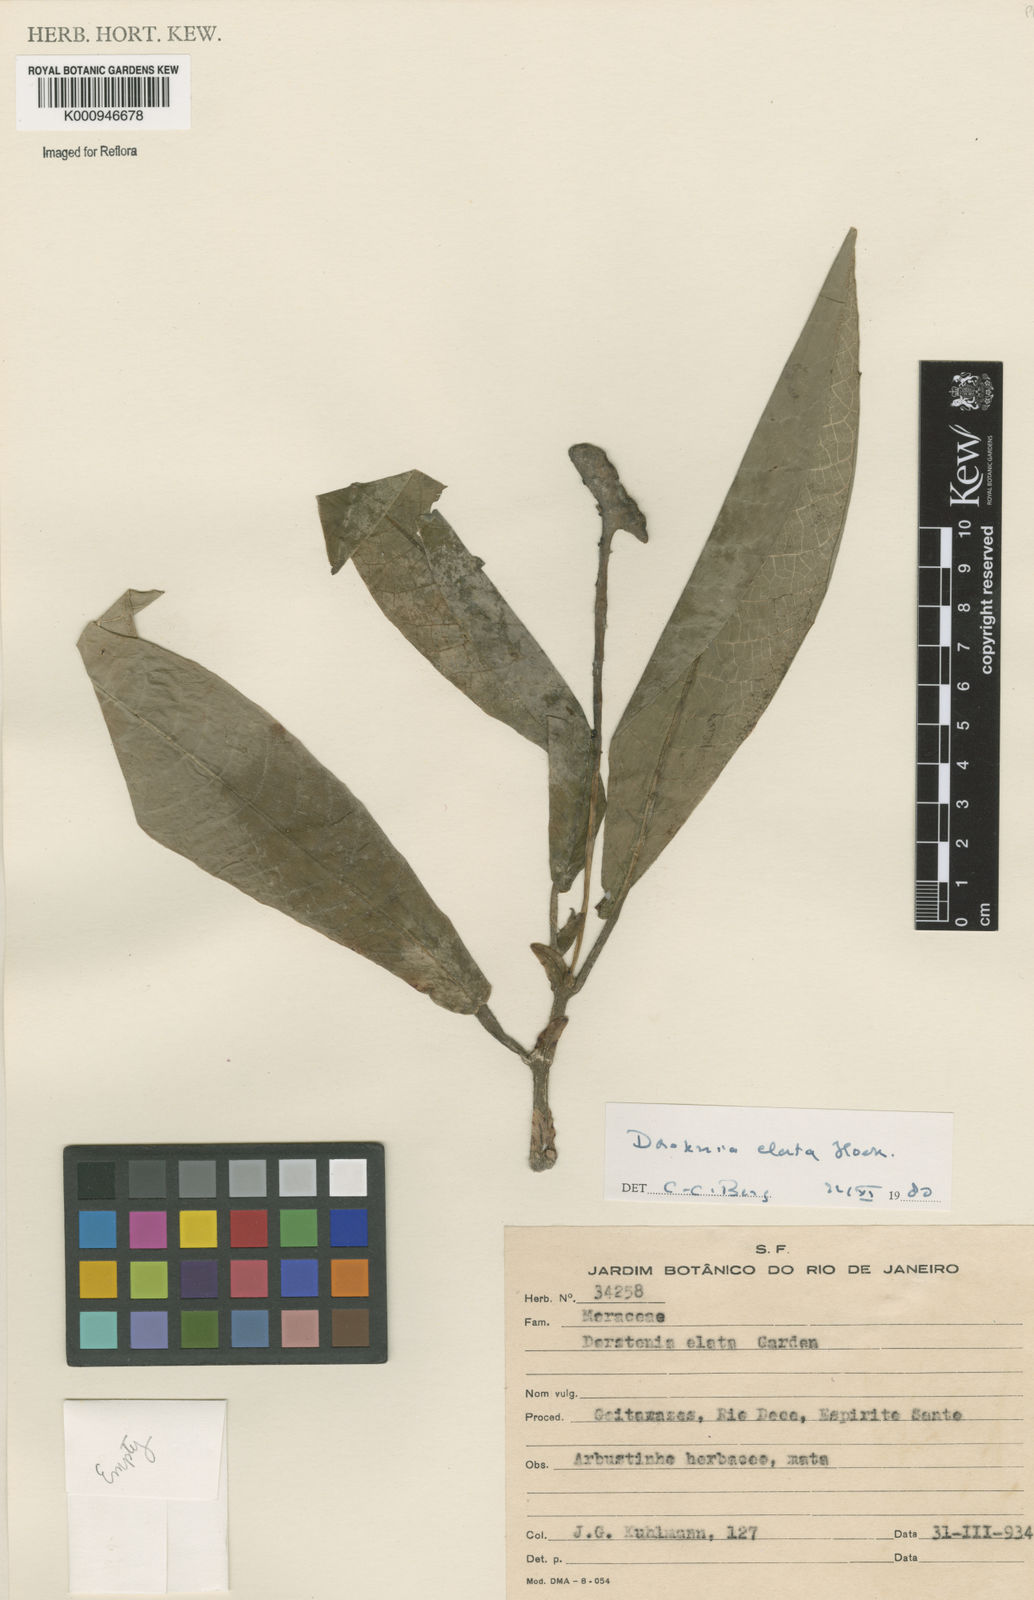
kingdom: Plantae
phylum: Tracheophyta
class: Magnoliopsida
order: Rosales
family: Moraceae
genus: Dorstenia
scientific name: Dorstenia
